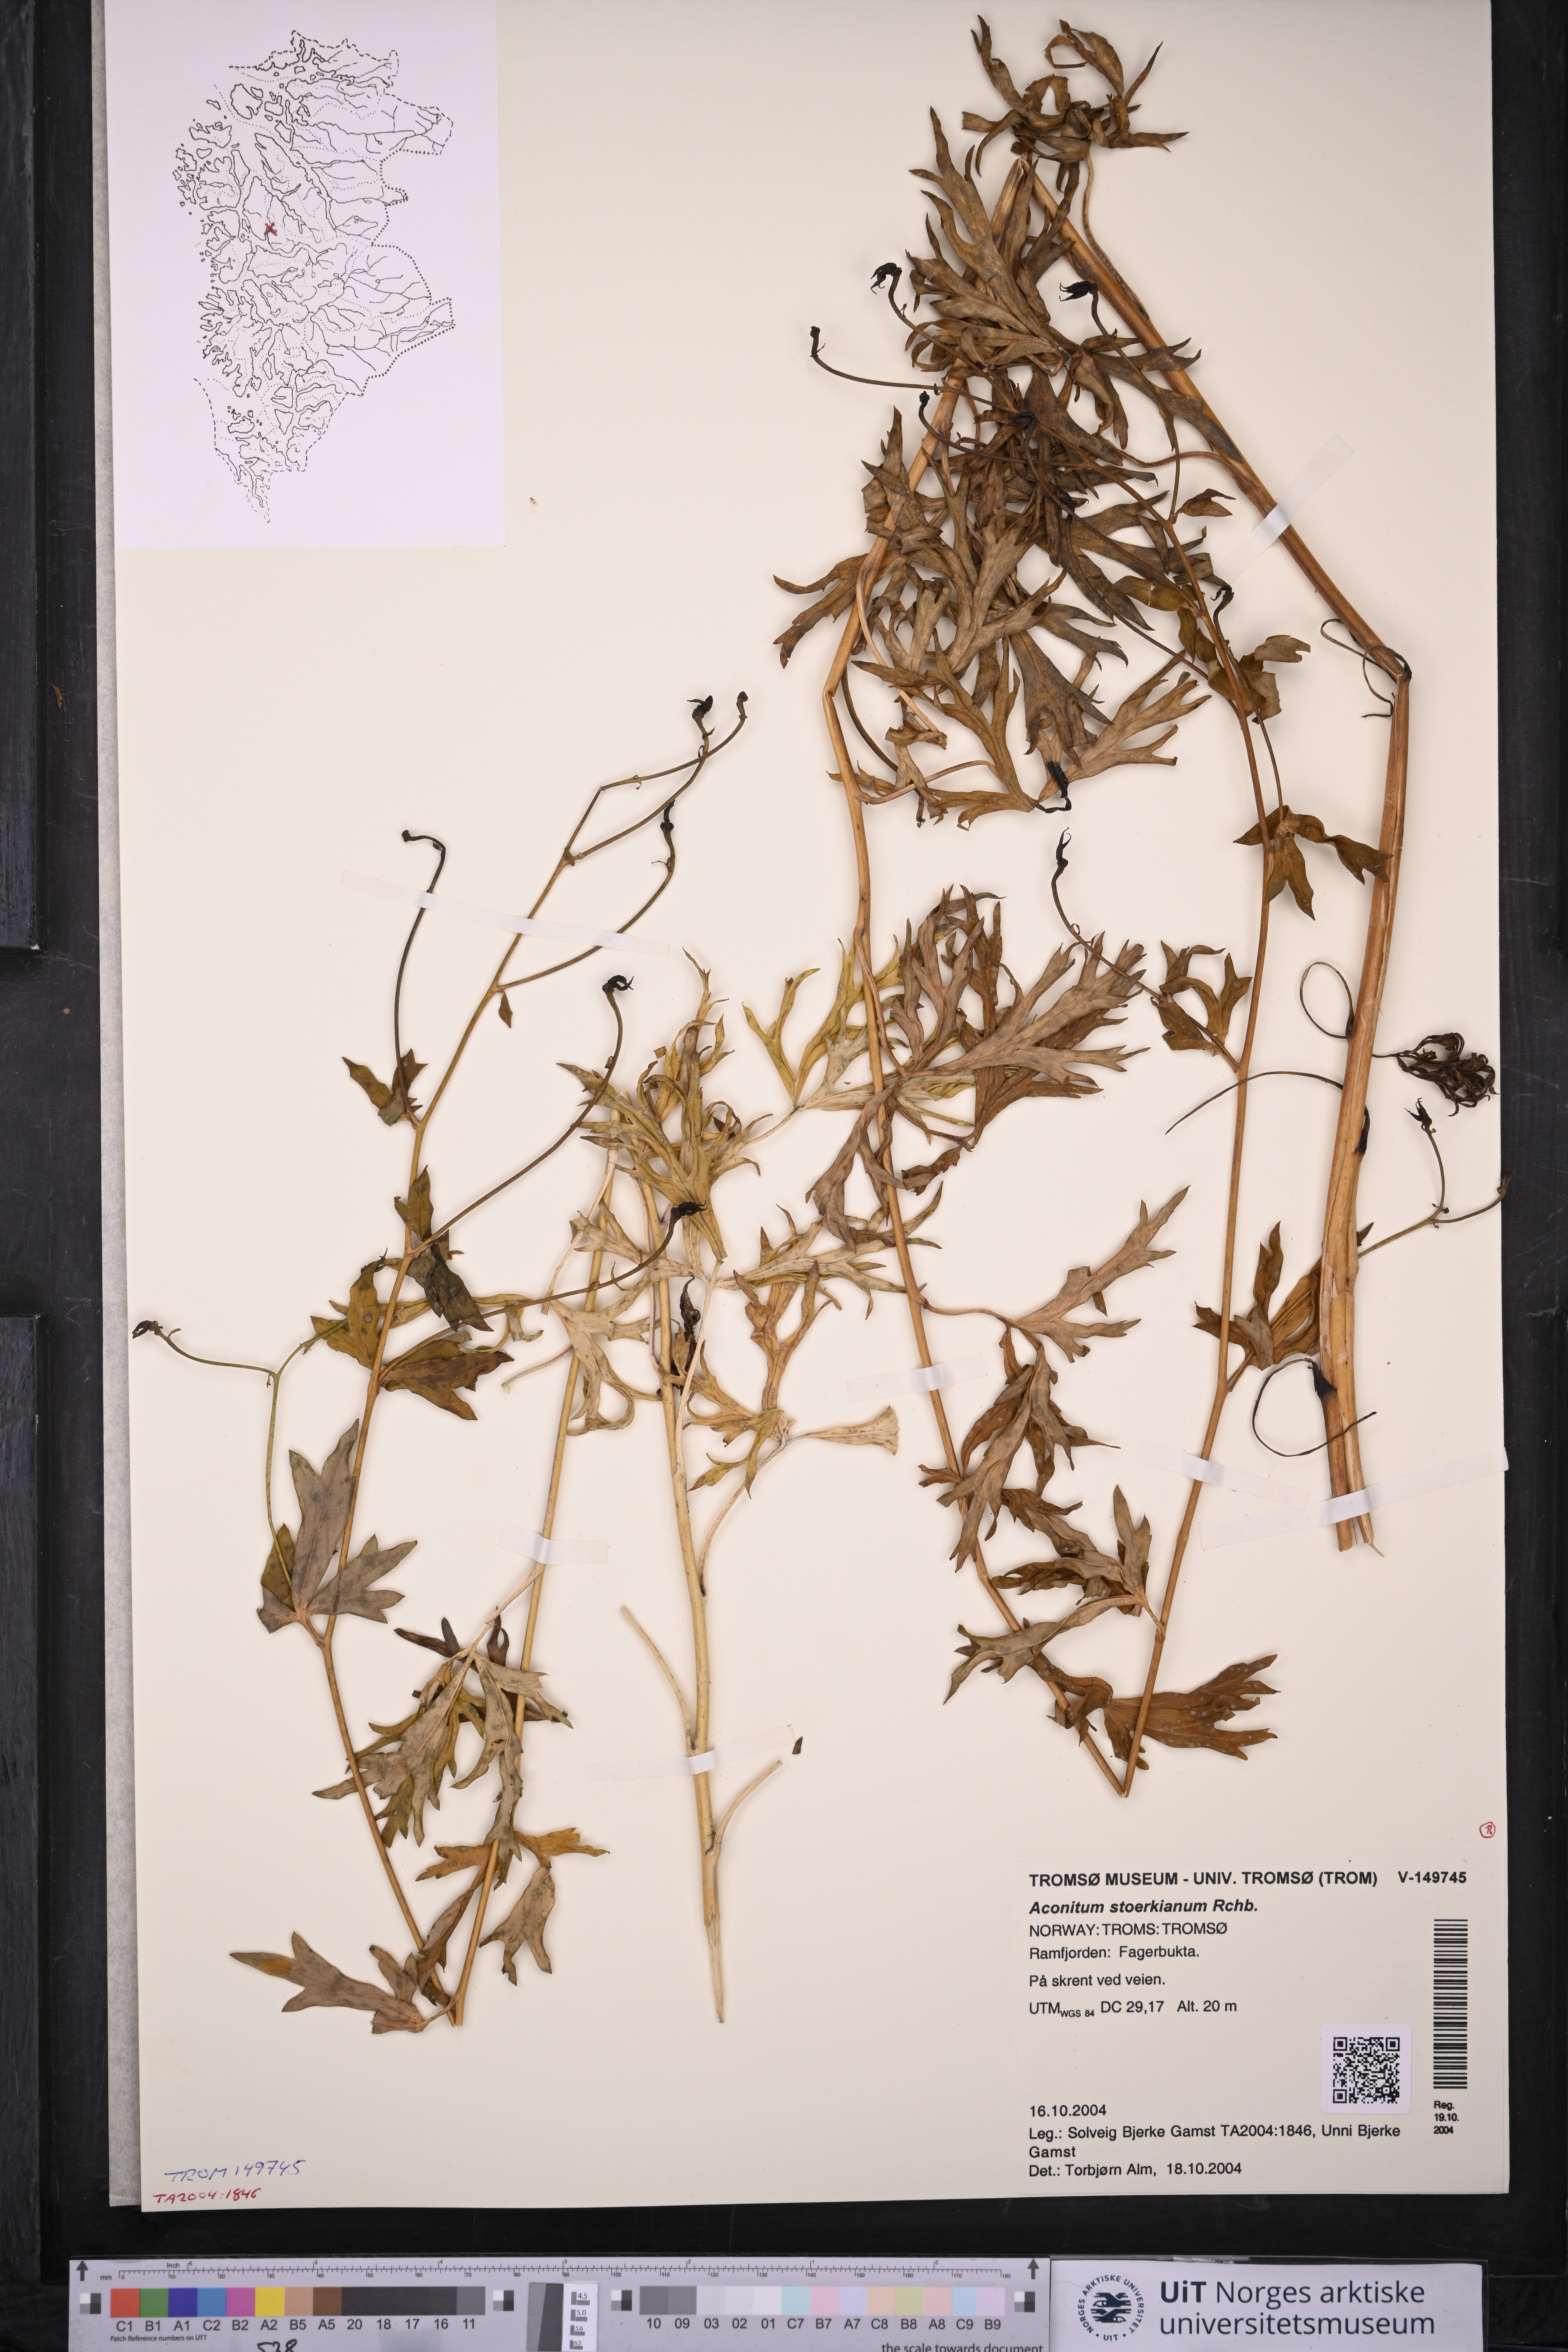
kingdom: Plantae
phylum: Tracheophyta
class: Magnoliopsida
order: Ranunculales
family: Ranunculaceae
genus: Aconitum
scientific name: Aconitum cammarum
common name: Hybrid monk's-hood
